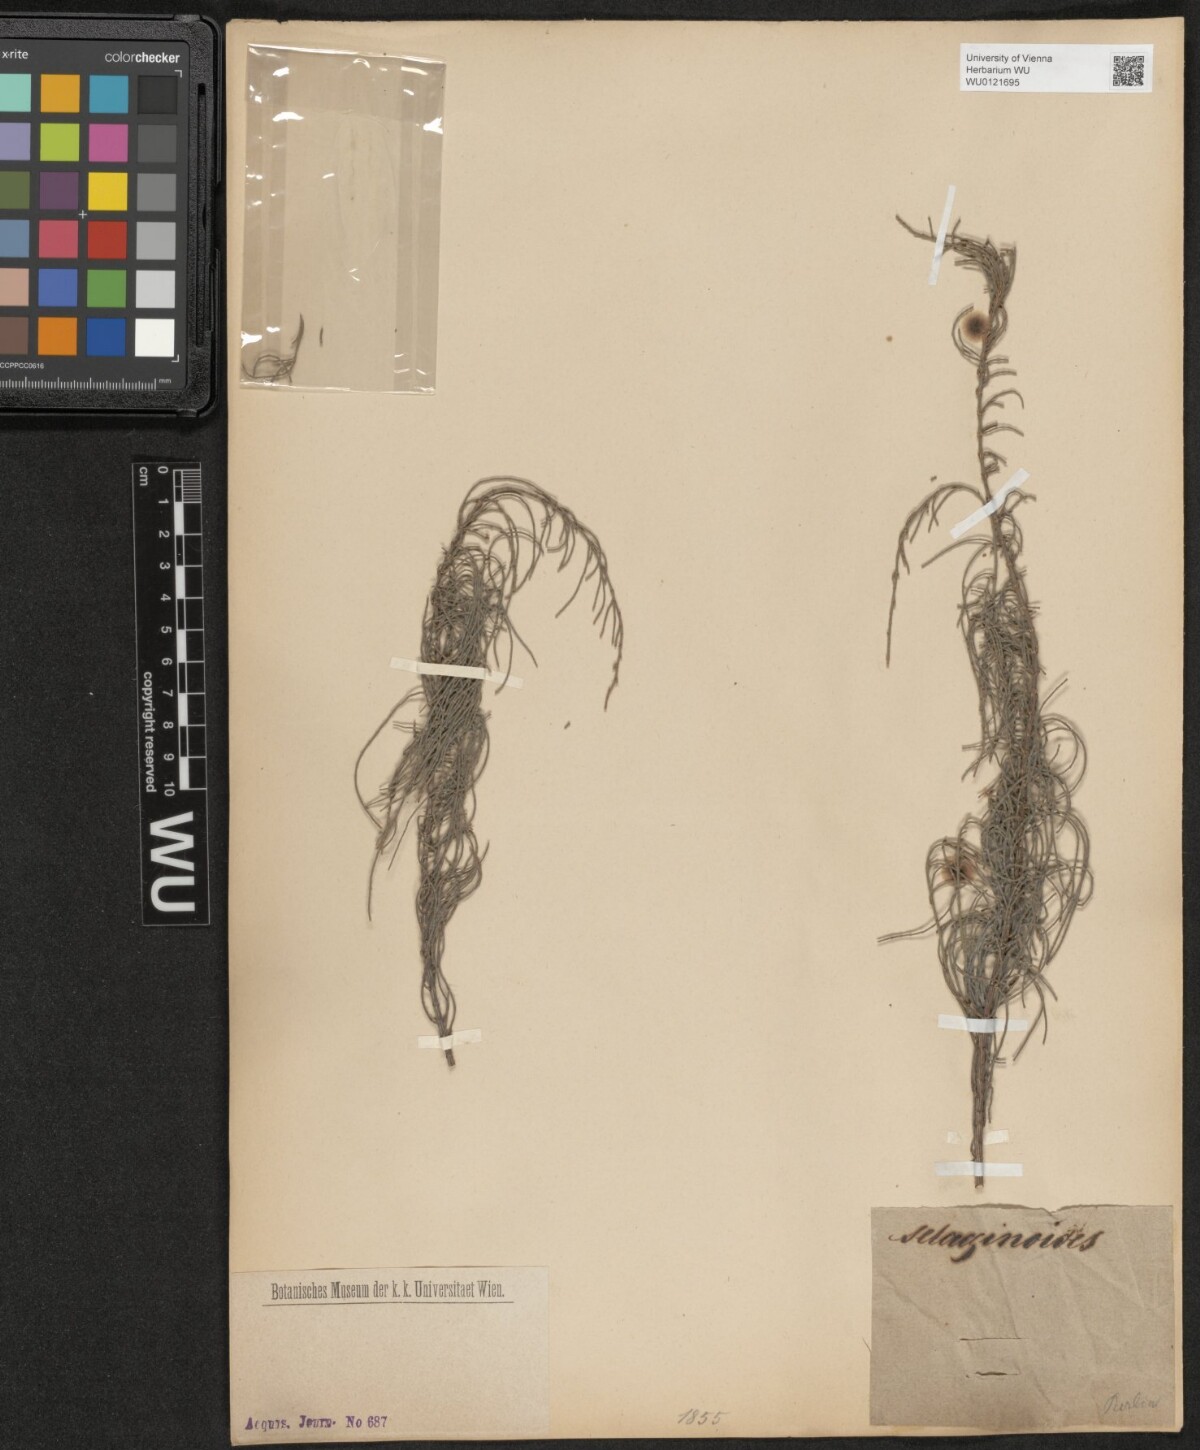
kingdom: Plantae
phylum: Tracheophyta
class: Magnoliopsida
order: Fagales
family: Casuarinaceae
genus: Allocasuarina
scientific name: Allocasuarina humilis
